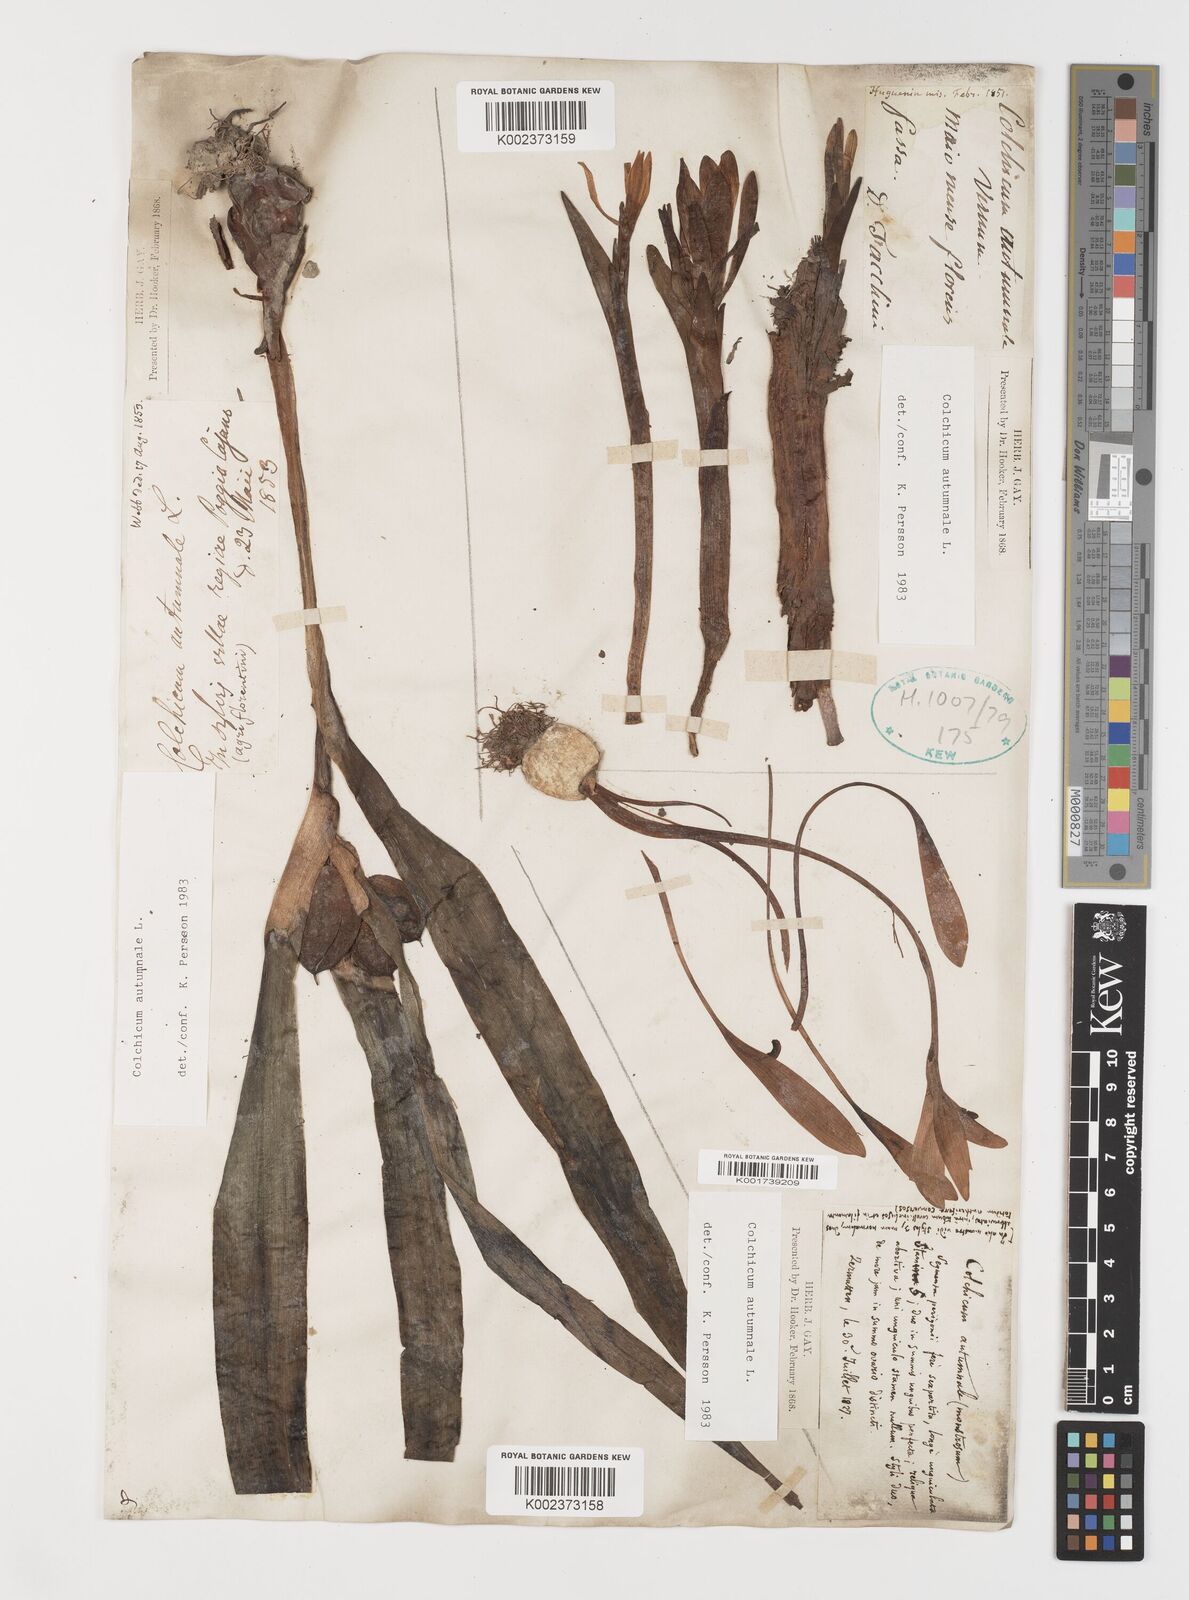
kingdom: Plantae
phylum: Tracheophyta
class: Liliopsida
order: Liliales
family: Colchicaceae
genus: Colchicum
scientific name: Colchicum autumnale
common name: Autumn crocus
